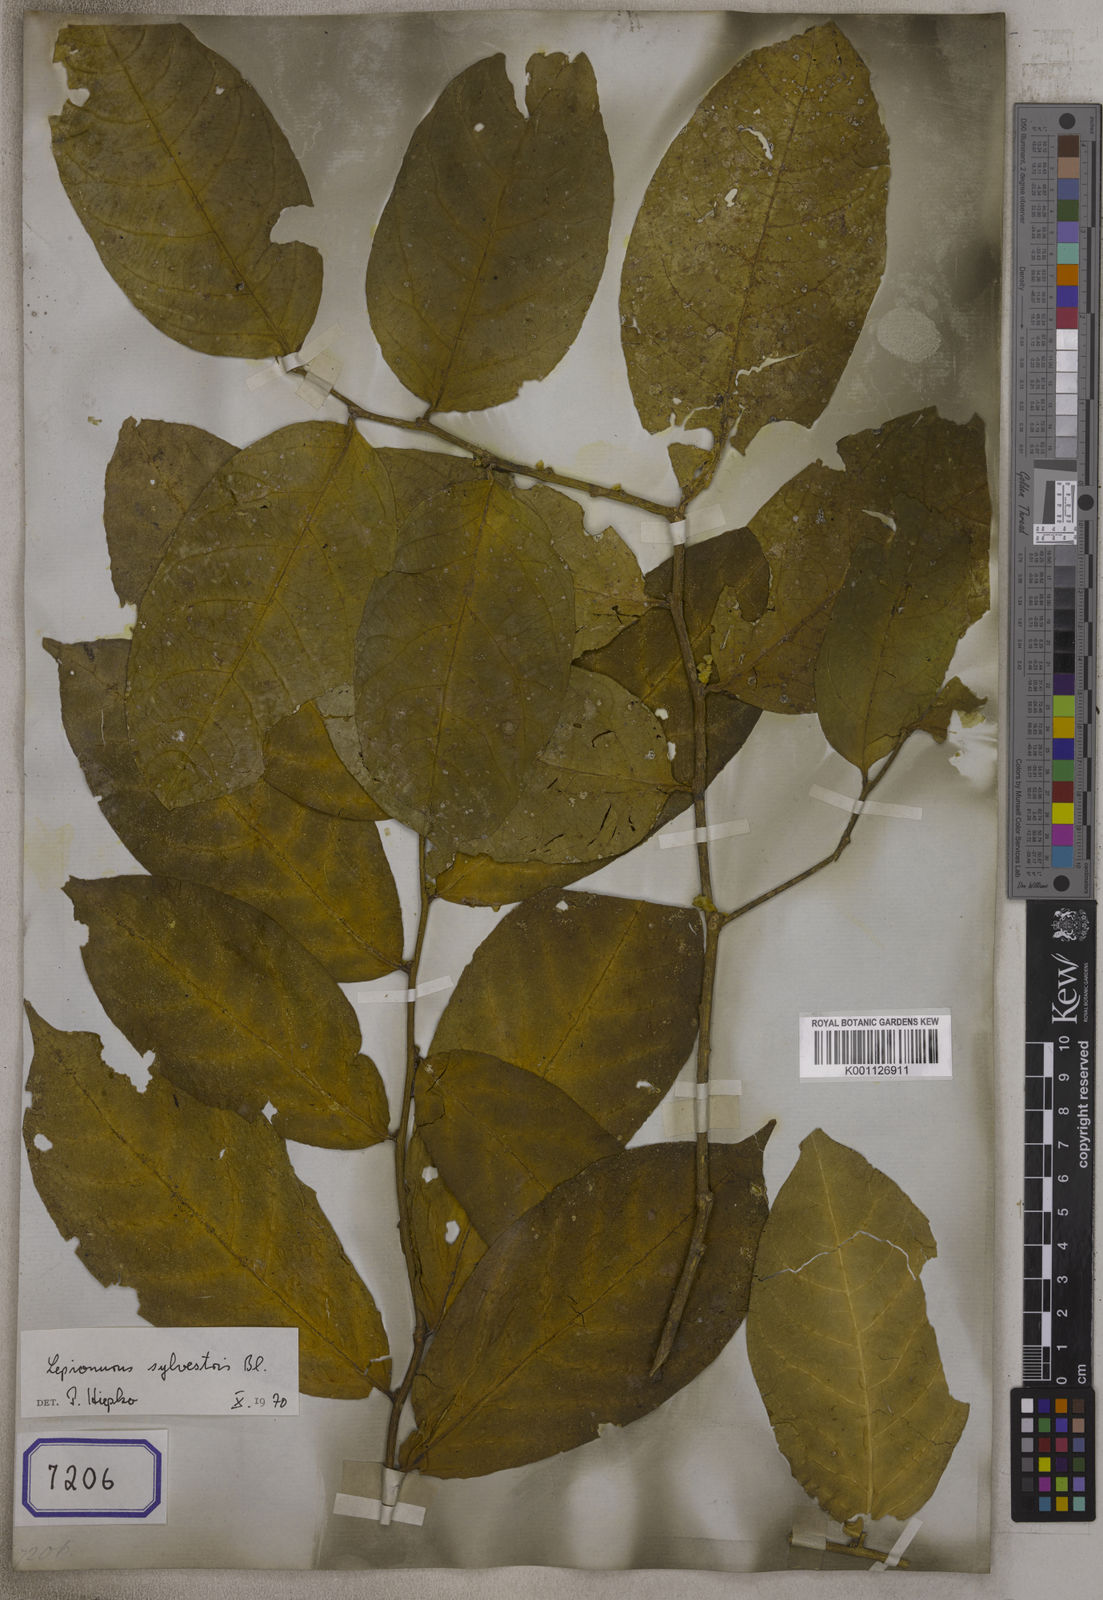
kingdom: Plantae
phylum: Tracheophyta
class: Magnoliopsida
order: Santalales
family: Opiliaceae
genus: Opilia
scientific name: Opilia
